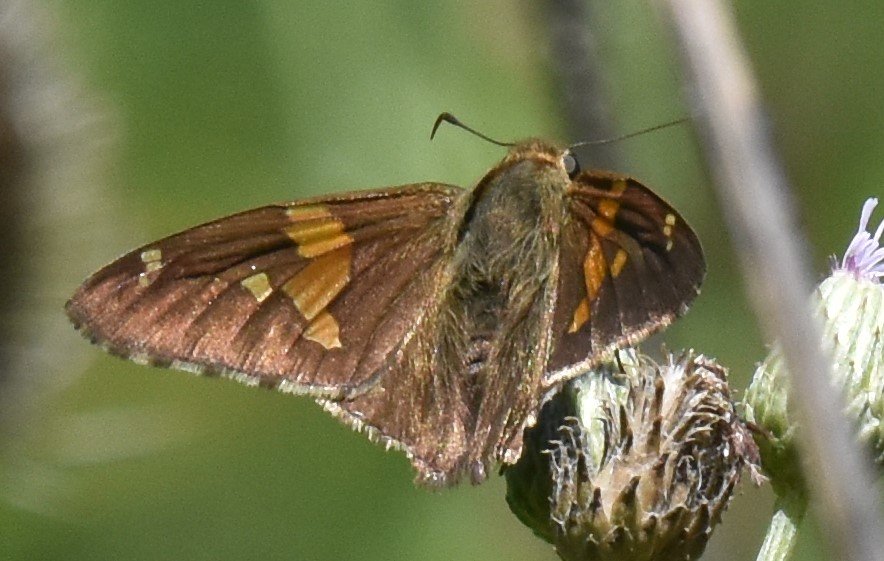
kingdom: Animalia
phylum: Arthropoda
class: Insecta
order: Lepidoptera
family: Hesperiidae
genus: Epargyreus
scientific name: Epargyreus clarus
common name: Silver-spotted Skipper
